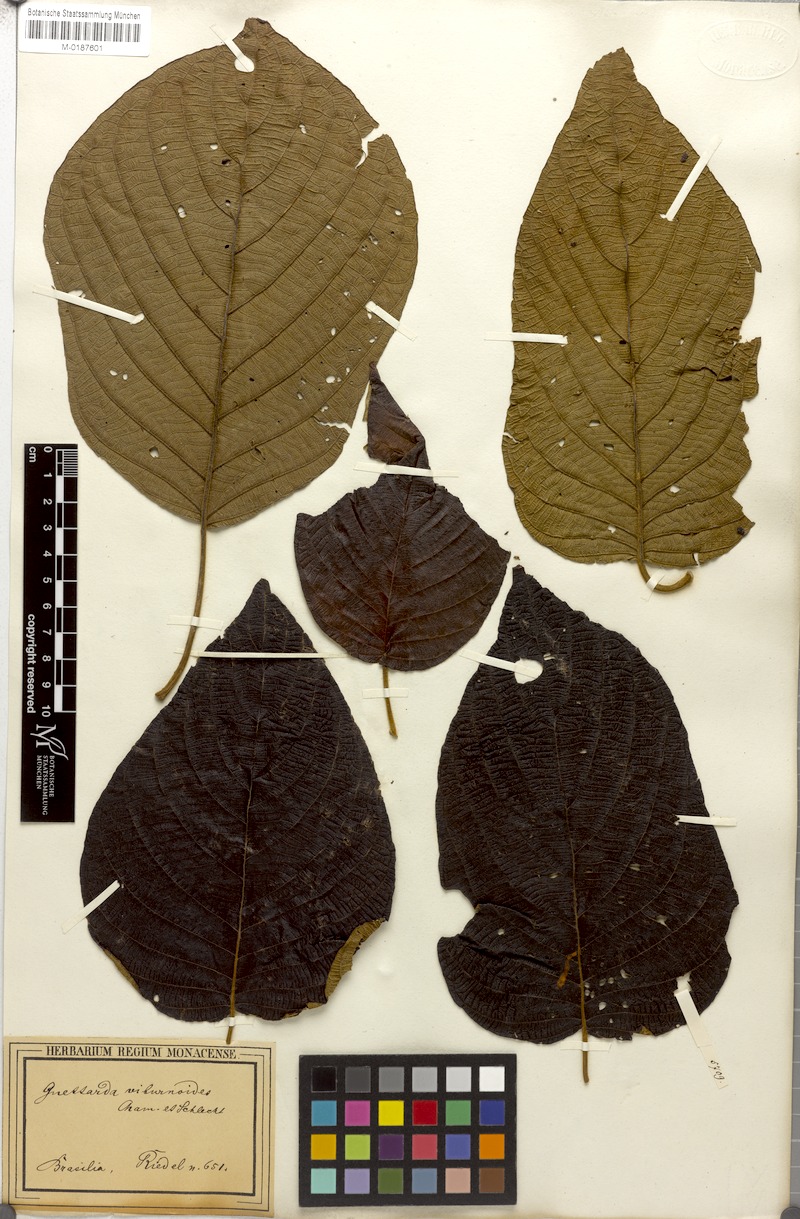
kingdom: Plantae
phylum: Tracheophyta
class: Magnoliopsida
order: Gentianales
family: Rubiaceae
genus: Guettarda
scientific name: Guettarda viburnoides
